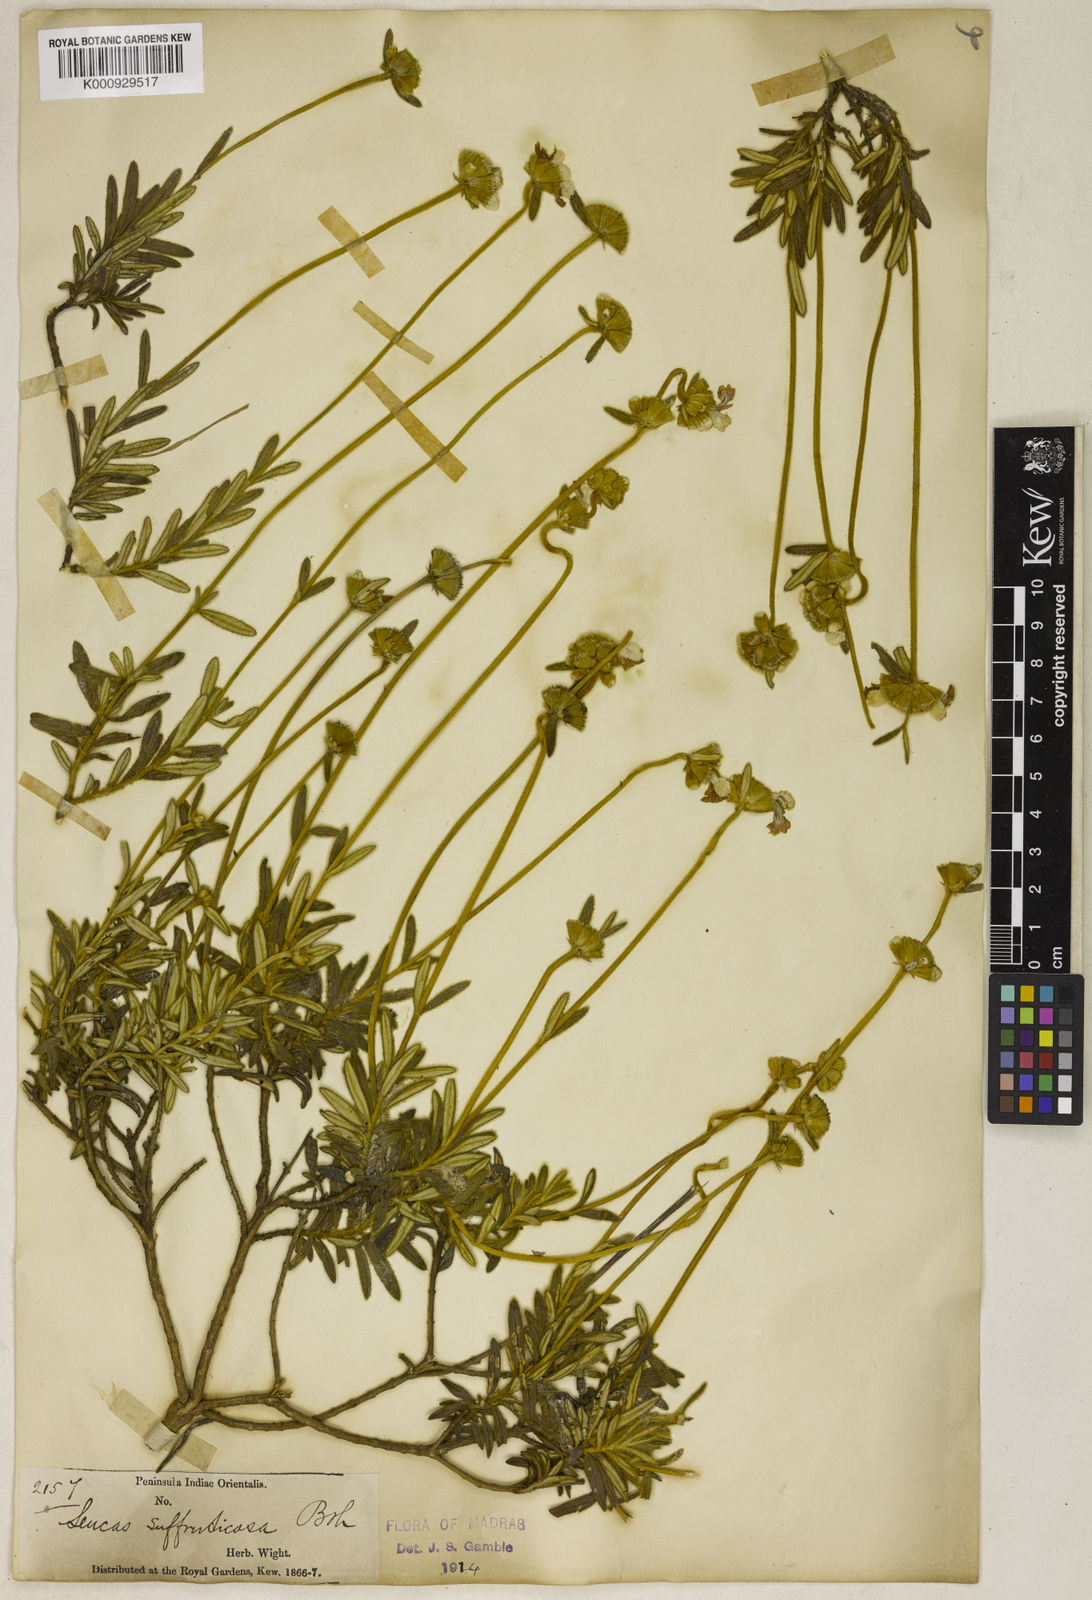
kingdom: Plantae
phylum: Tracheophyta
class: Magnoliopsida
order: Lamiales
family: Lamiaceae
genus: Leucas
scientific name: Leucas suffruticosa
